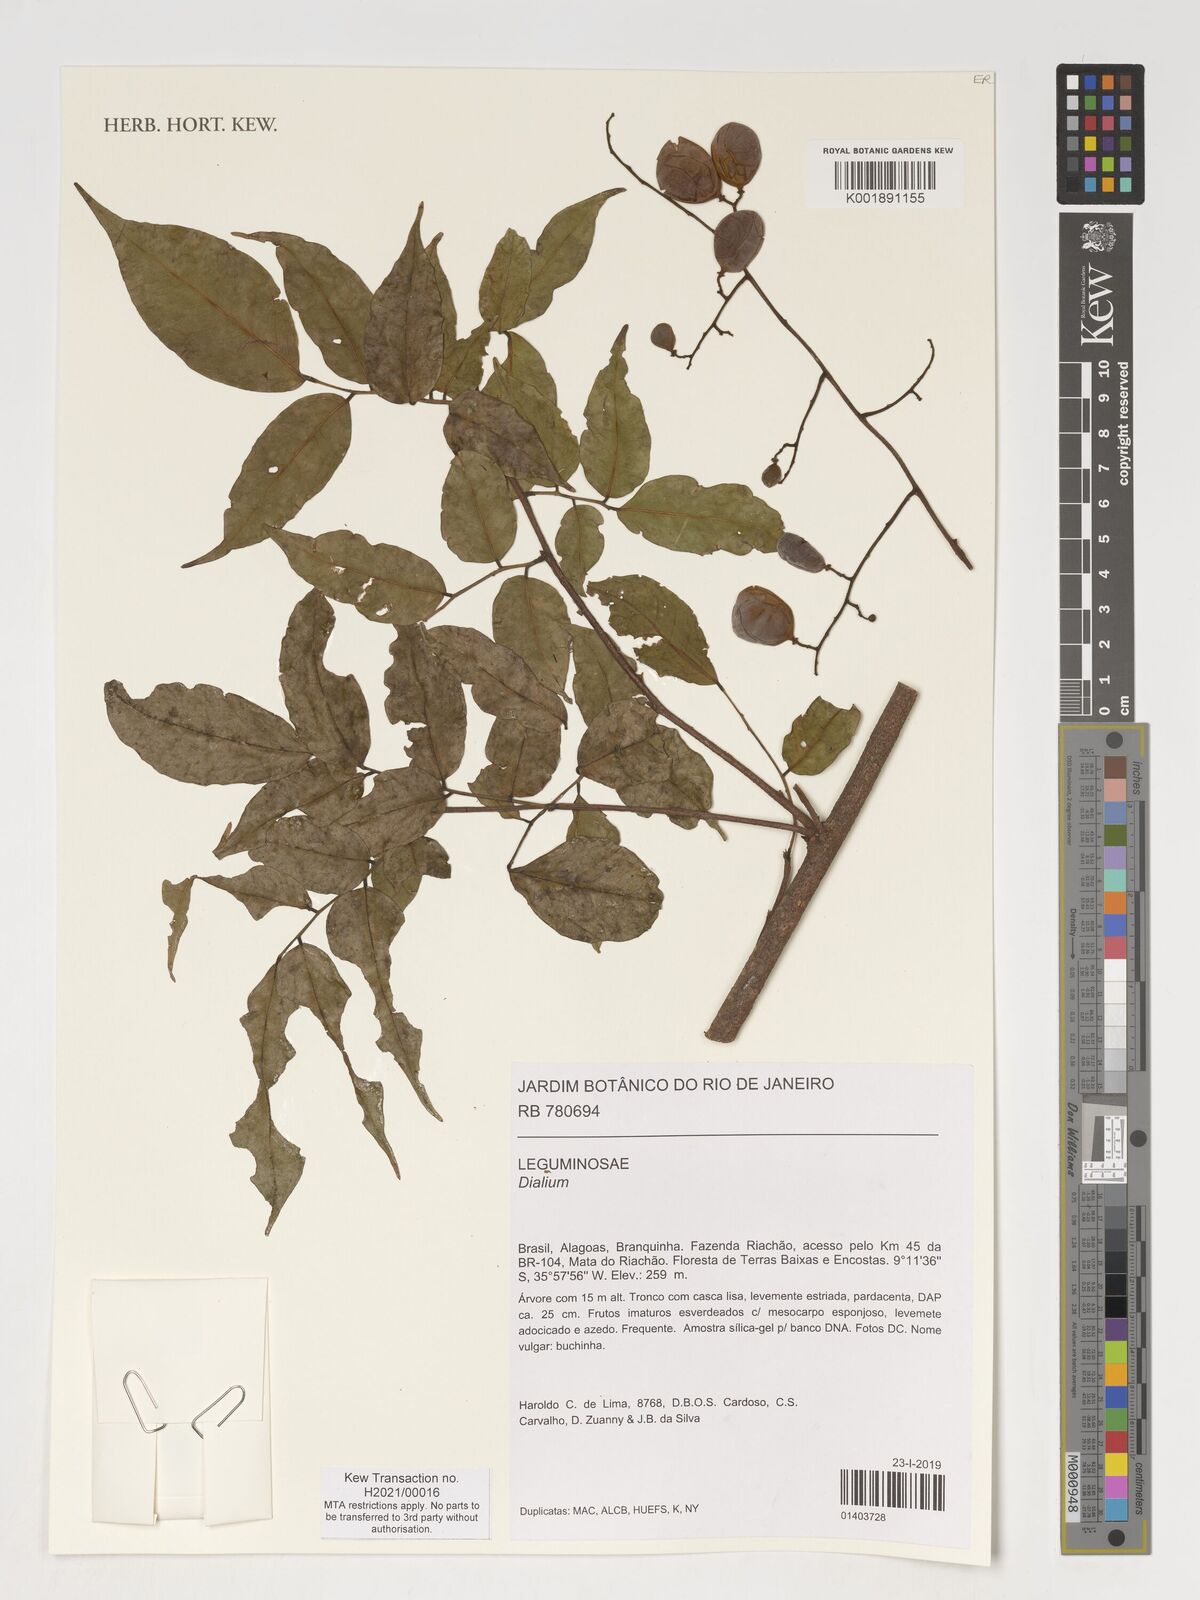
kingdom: Plantae
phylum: Tracheophyta
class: Magnoliopsida
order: Fabales
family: Fabaceae
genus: Dialium
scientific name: Dialium
